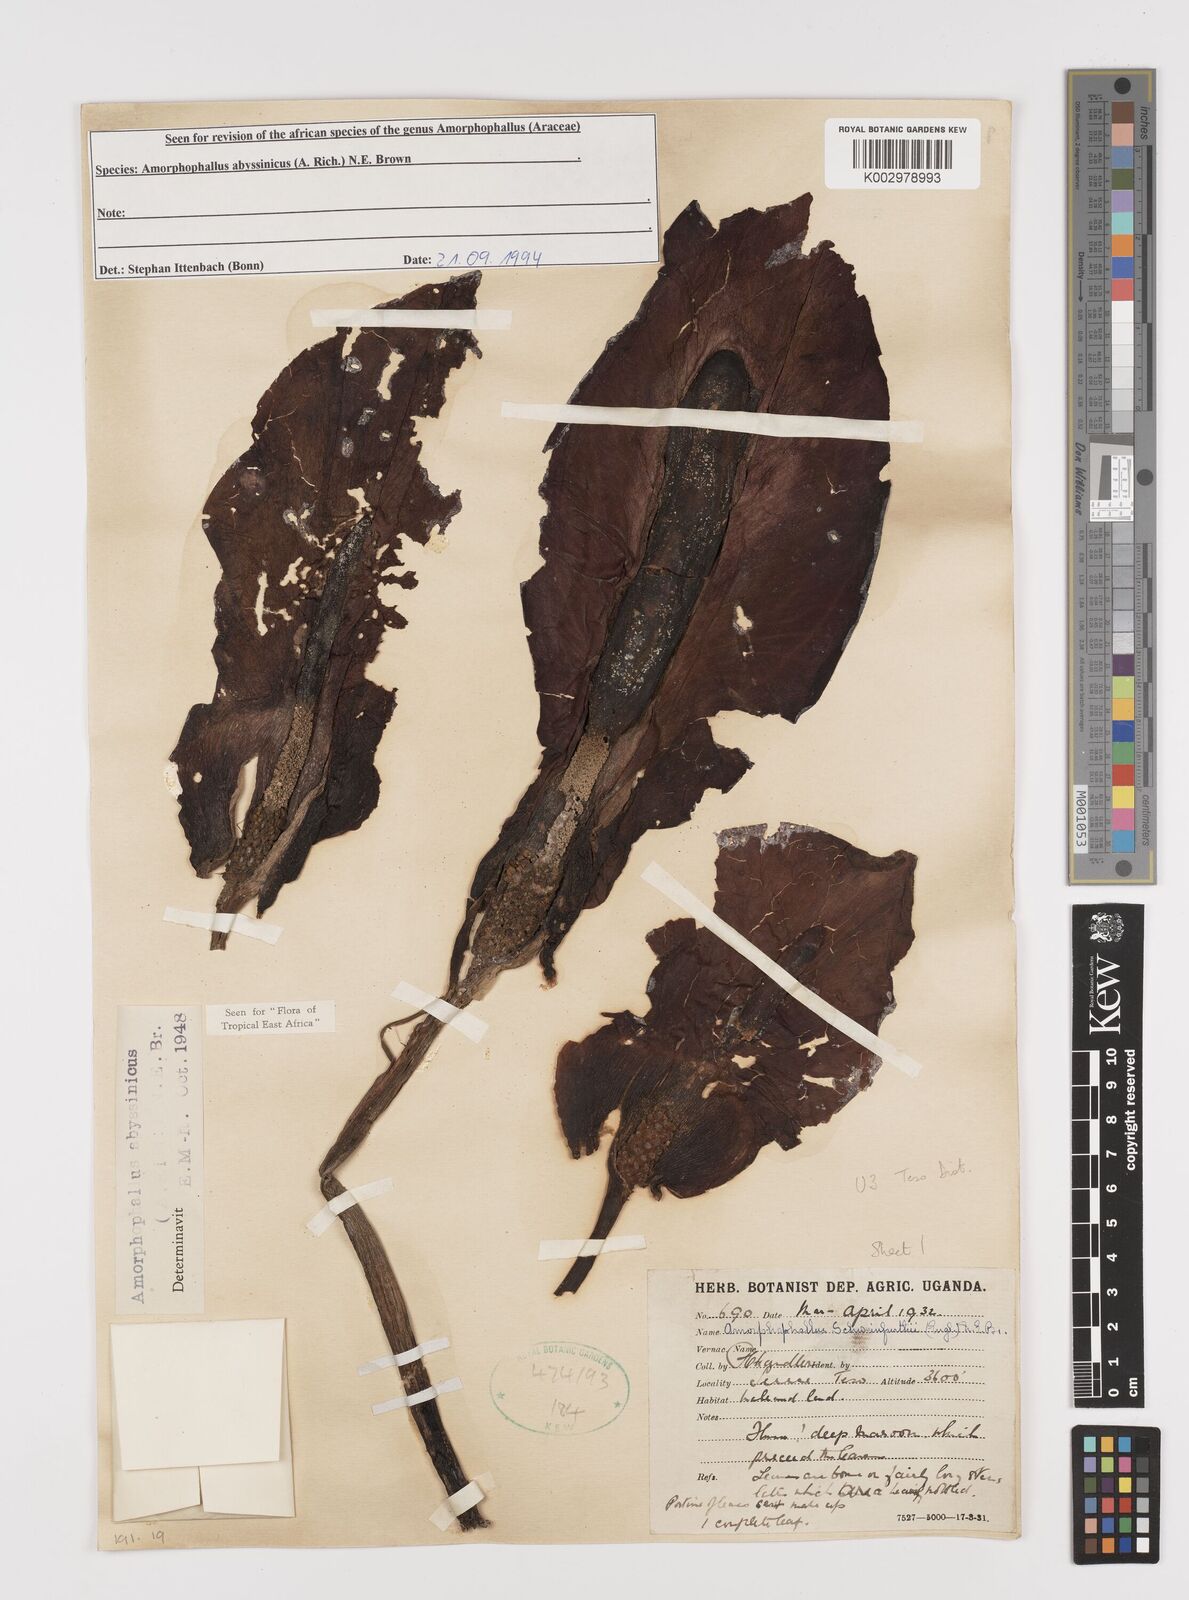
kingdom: Plantae
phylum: Tracheophyta
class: Liliopsida
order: Alismatales
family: Araceae
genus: Amorphophallus
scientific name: Amorphophallus abyssinicus
